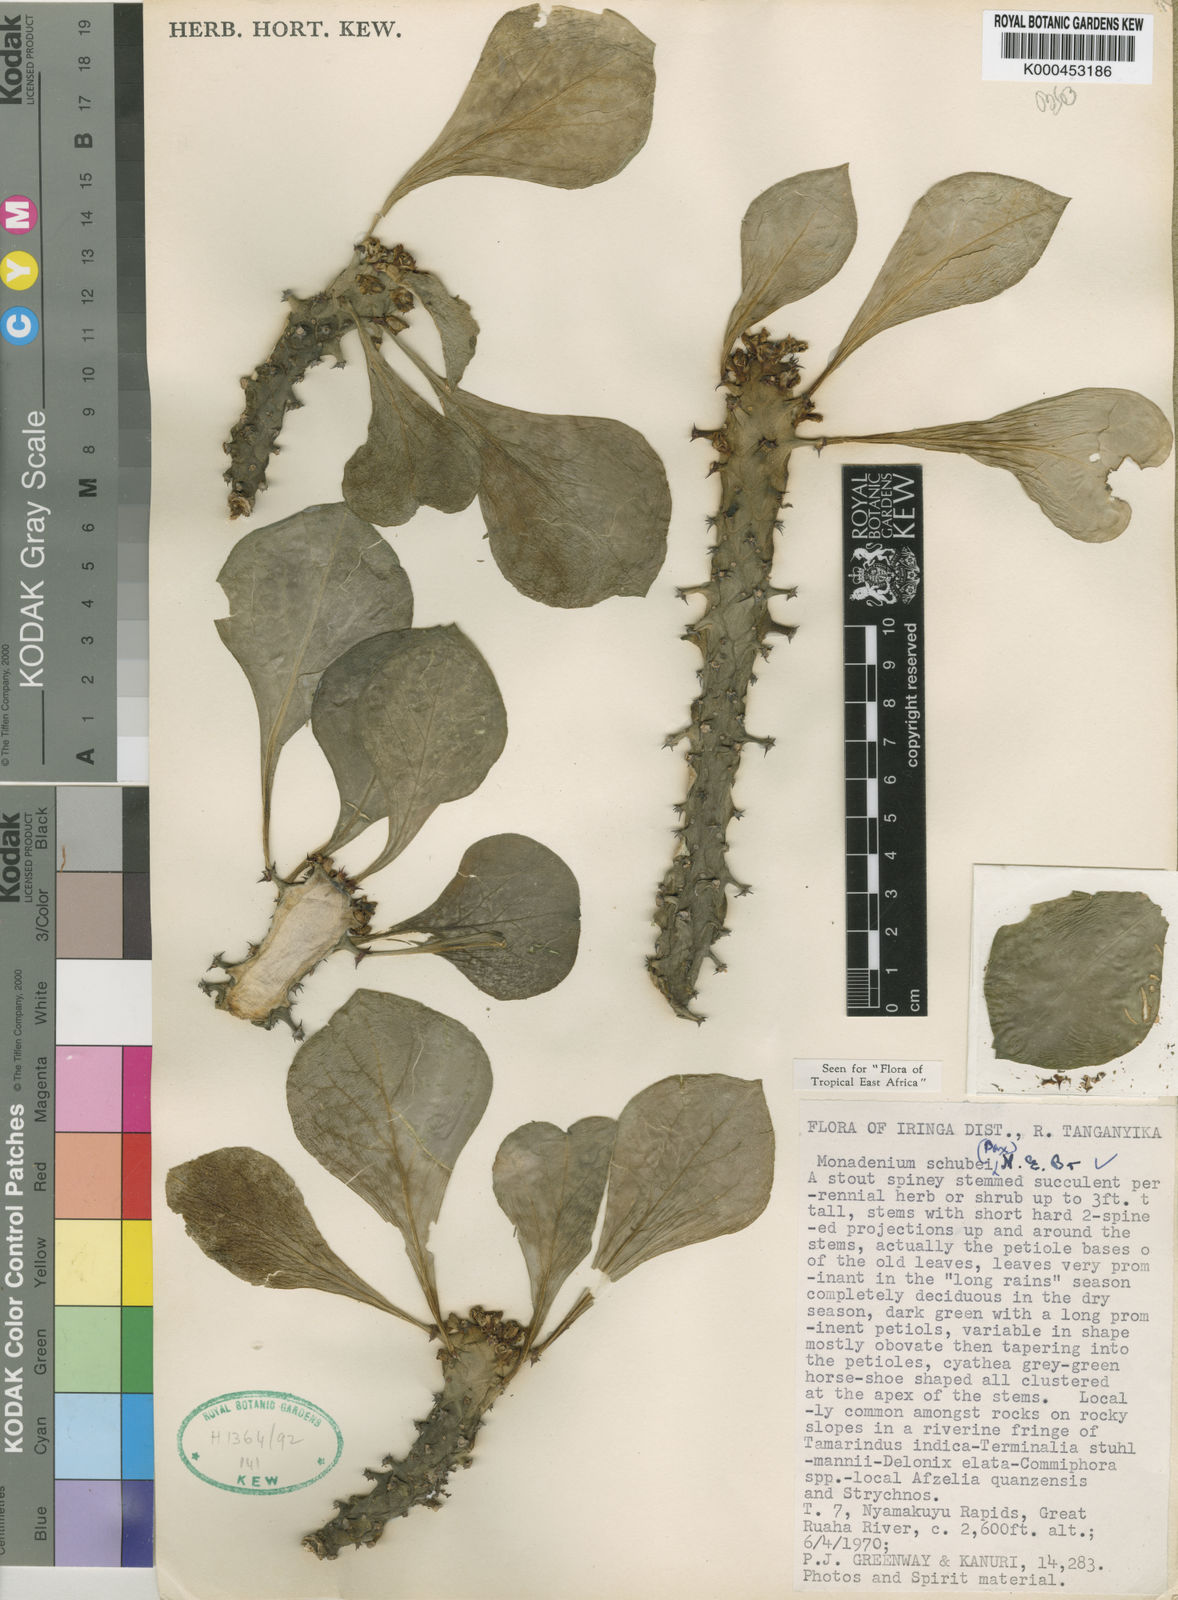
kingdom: Plantae
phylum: Tracheophyta
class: Magnoliopsida
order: Malpighiales
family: Euphorbiaceae
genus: Euphorbia
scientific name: Euphorbia schubei
